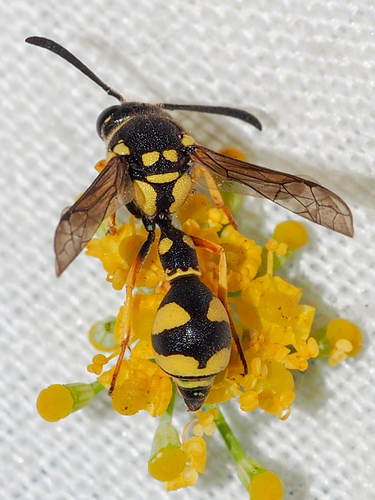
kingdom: Animalia
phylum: Arthropoda
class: Insecta
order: Hymenoptera
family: Vespidae
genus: Eumenes
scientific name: Eumenes
